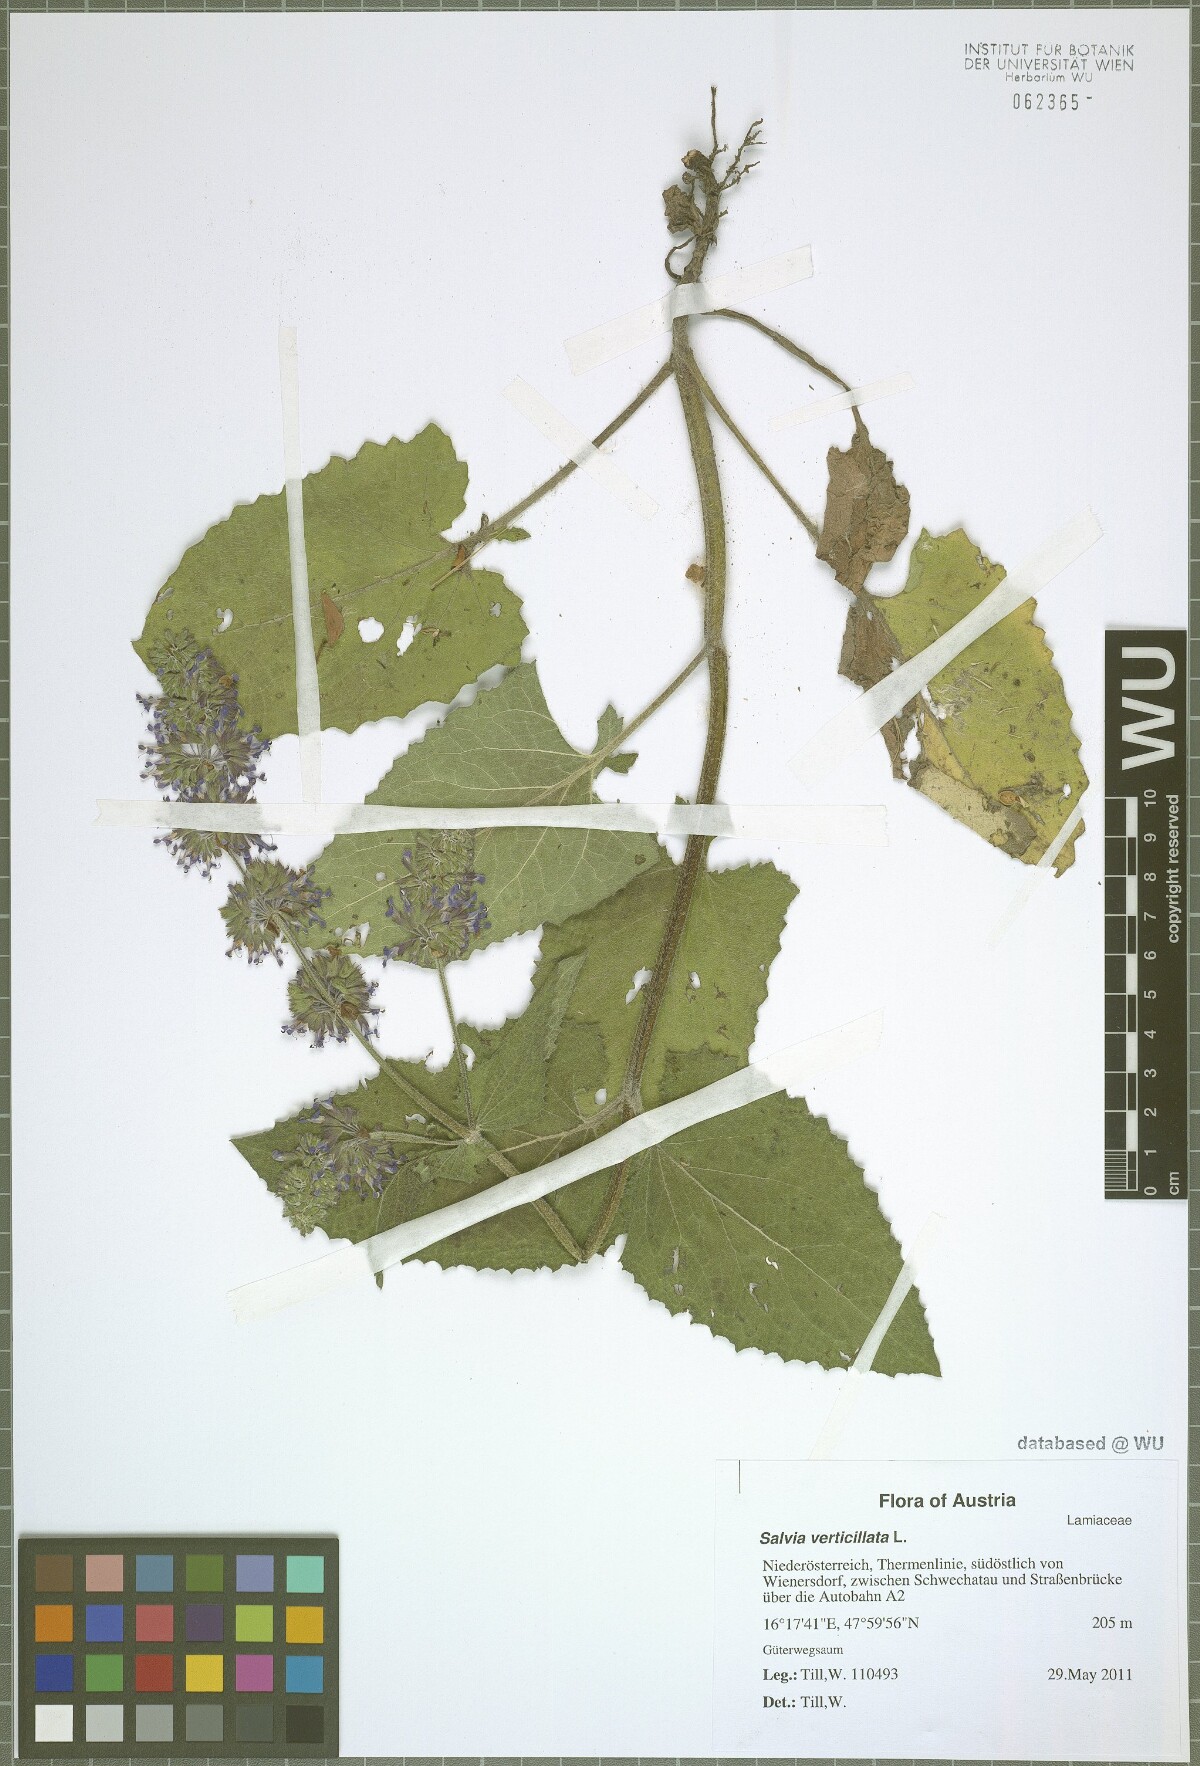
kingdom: Plantae
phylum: Tracheophyta
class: Magnoliopsida
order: Lamiales
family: Lamiaceae
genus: Salvia
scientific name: Salvia verticillata
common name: Whorled clary
